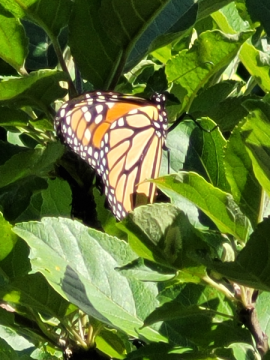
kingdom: Animalia
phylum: Arthropoda
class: Insecta
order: Lepidoptera
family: Nymphalidae
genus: Danaus
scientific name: Danaus plexippus
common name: Monarch
